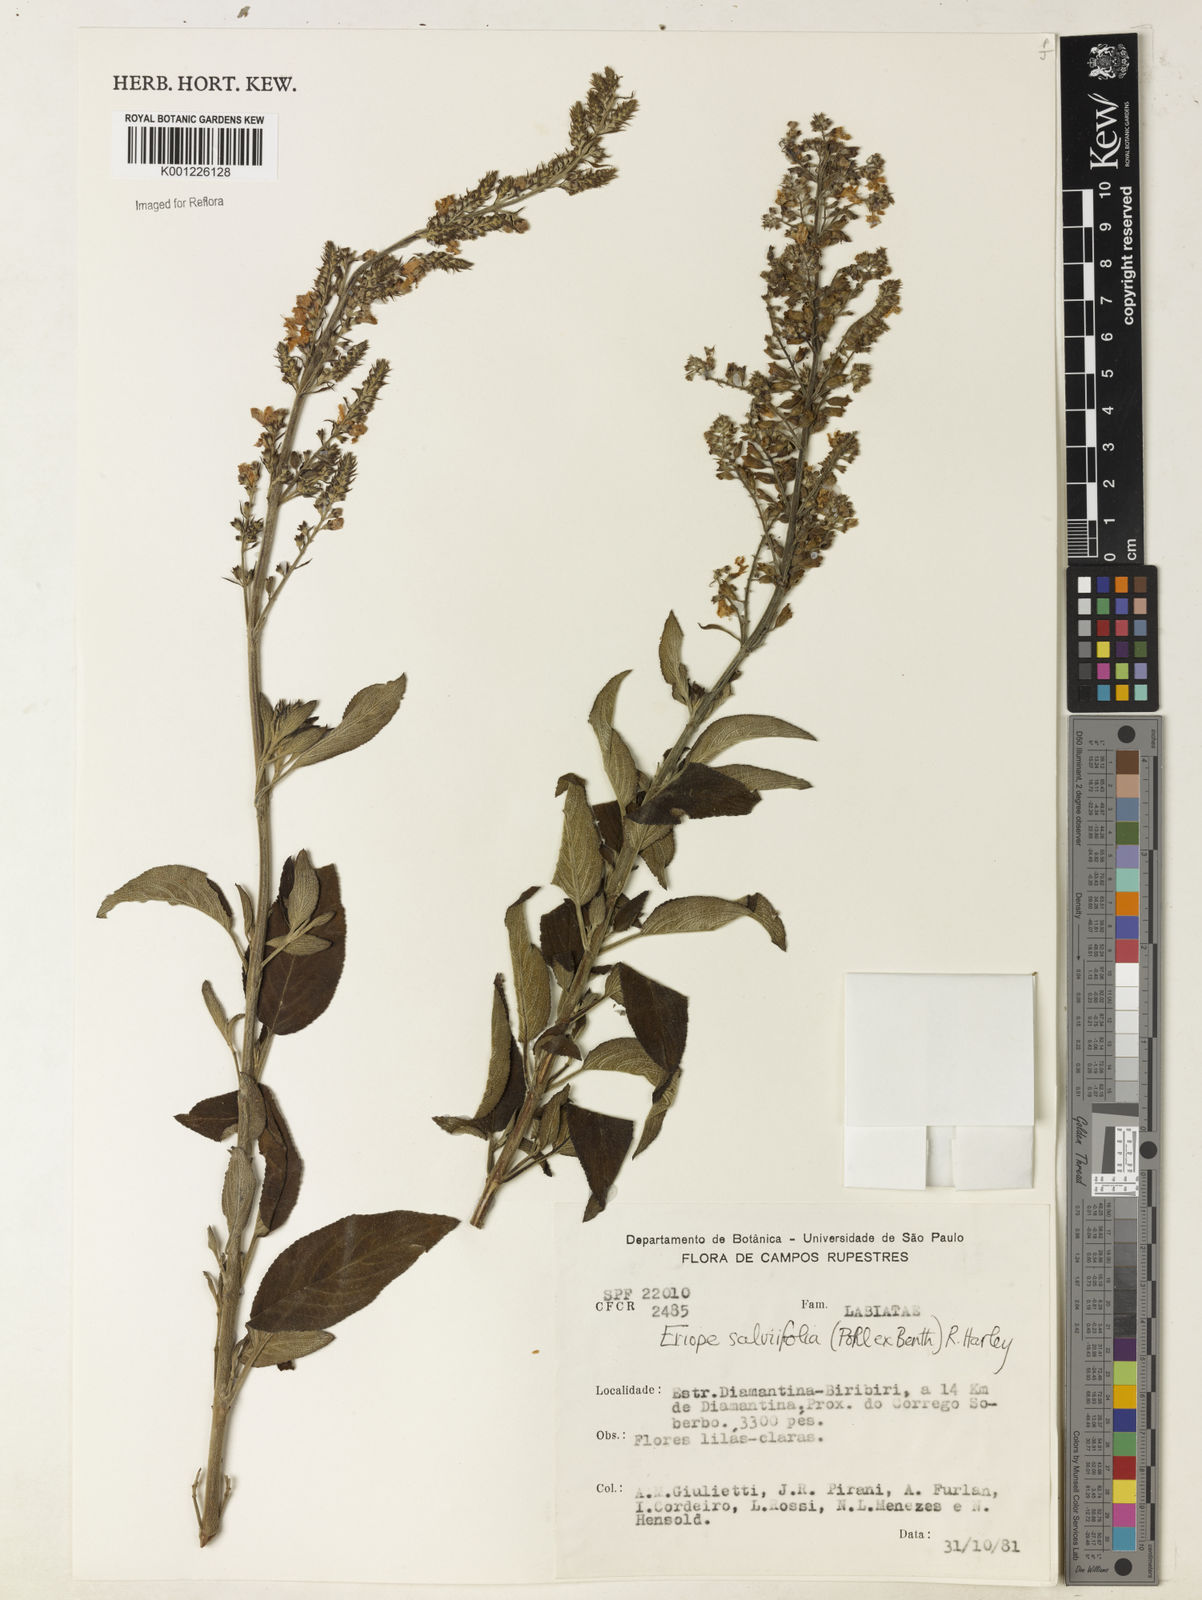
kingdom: Plantae
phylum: Tracheophyta
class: Magnoliopsida
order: Lamiales
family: Lamiaceae
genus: Eriope
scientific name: Eriope salviifolia
